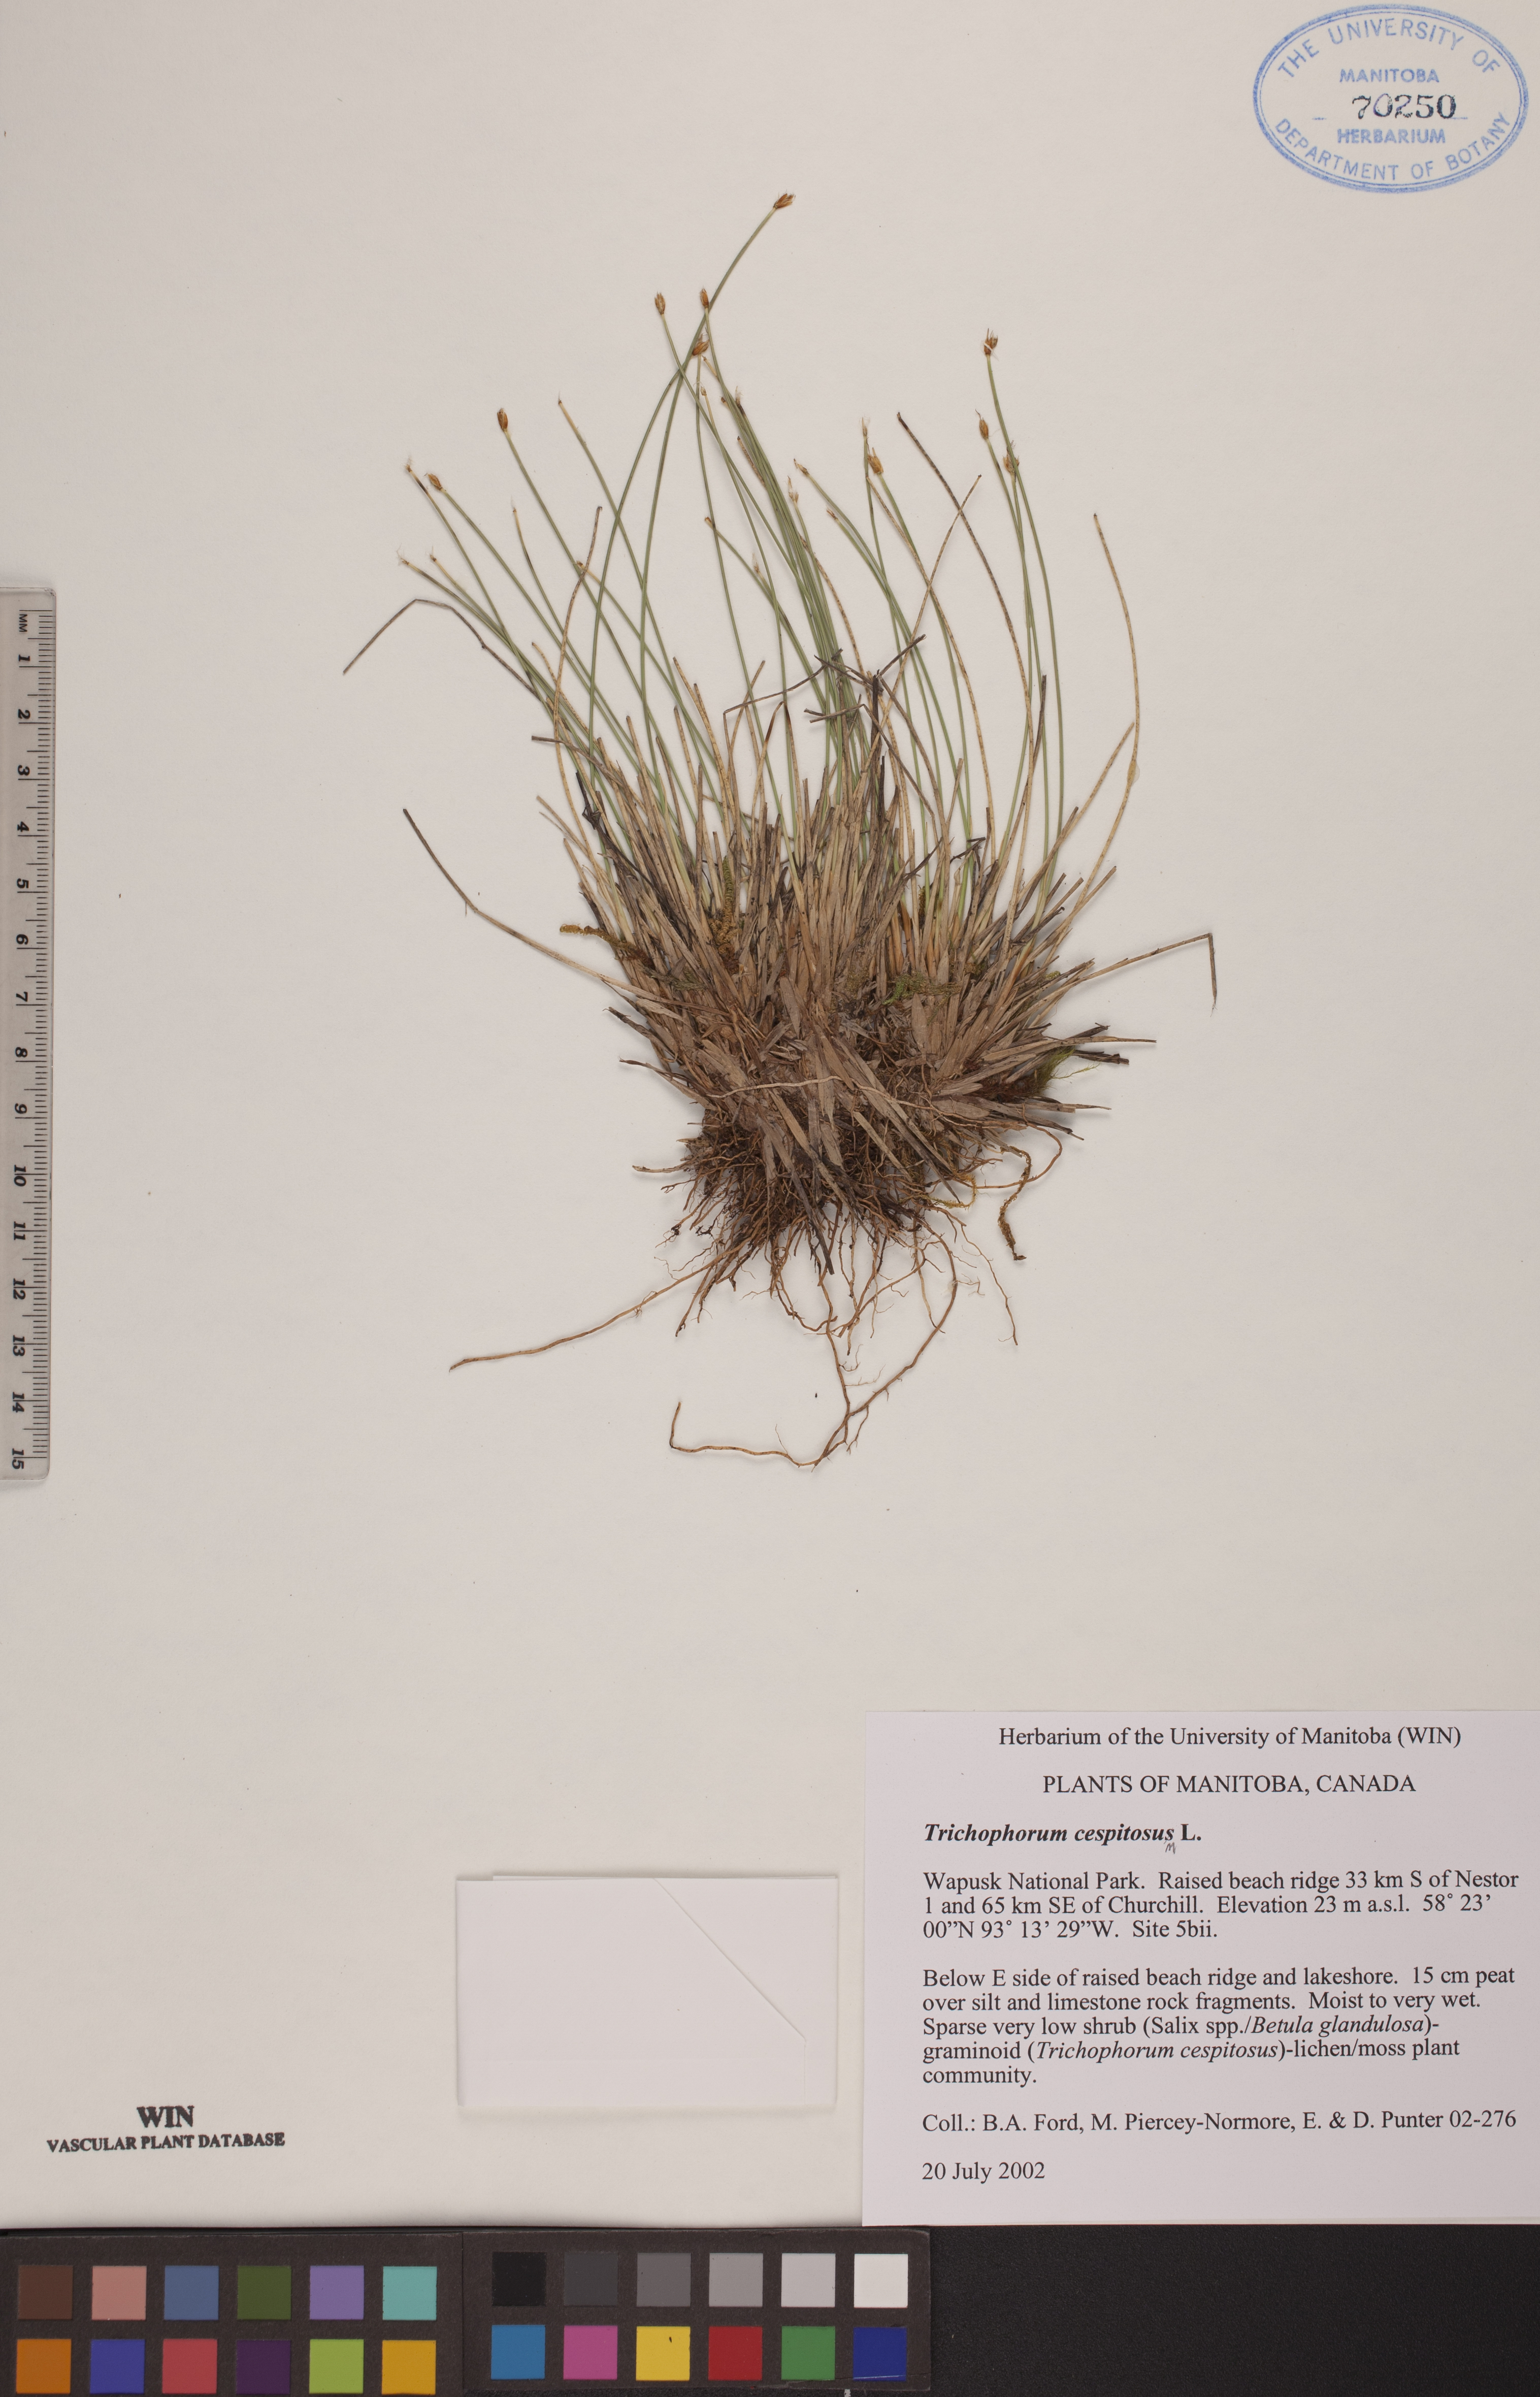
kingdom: Plantae
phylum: Tracheophyta
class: Liliopsida
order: Poales
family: Cyperaceae
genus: Trichophorum
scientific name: Trichophorum cespitosum
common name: Cespitose bulrush
